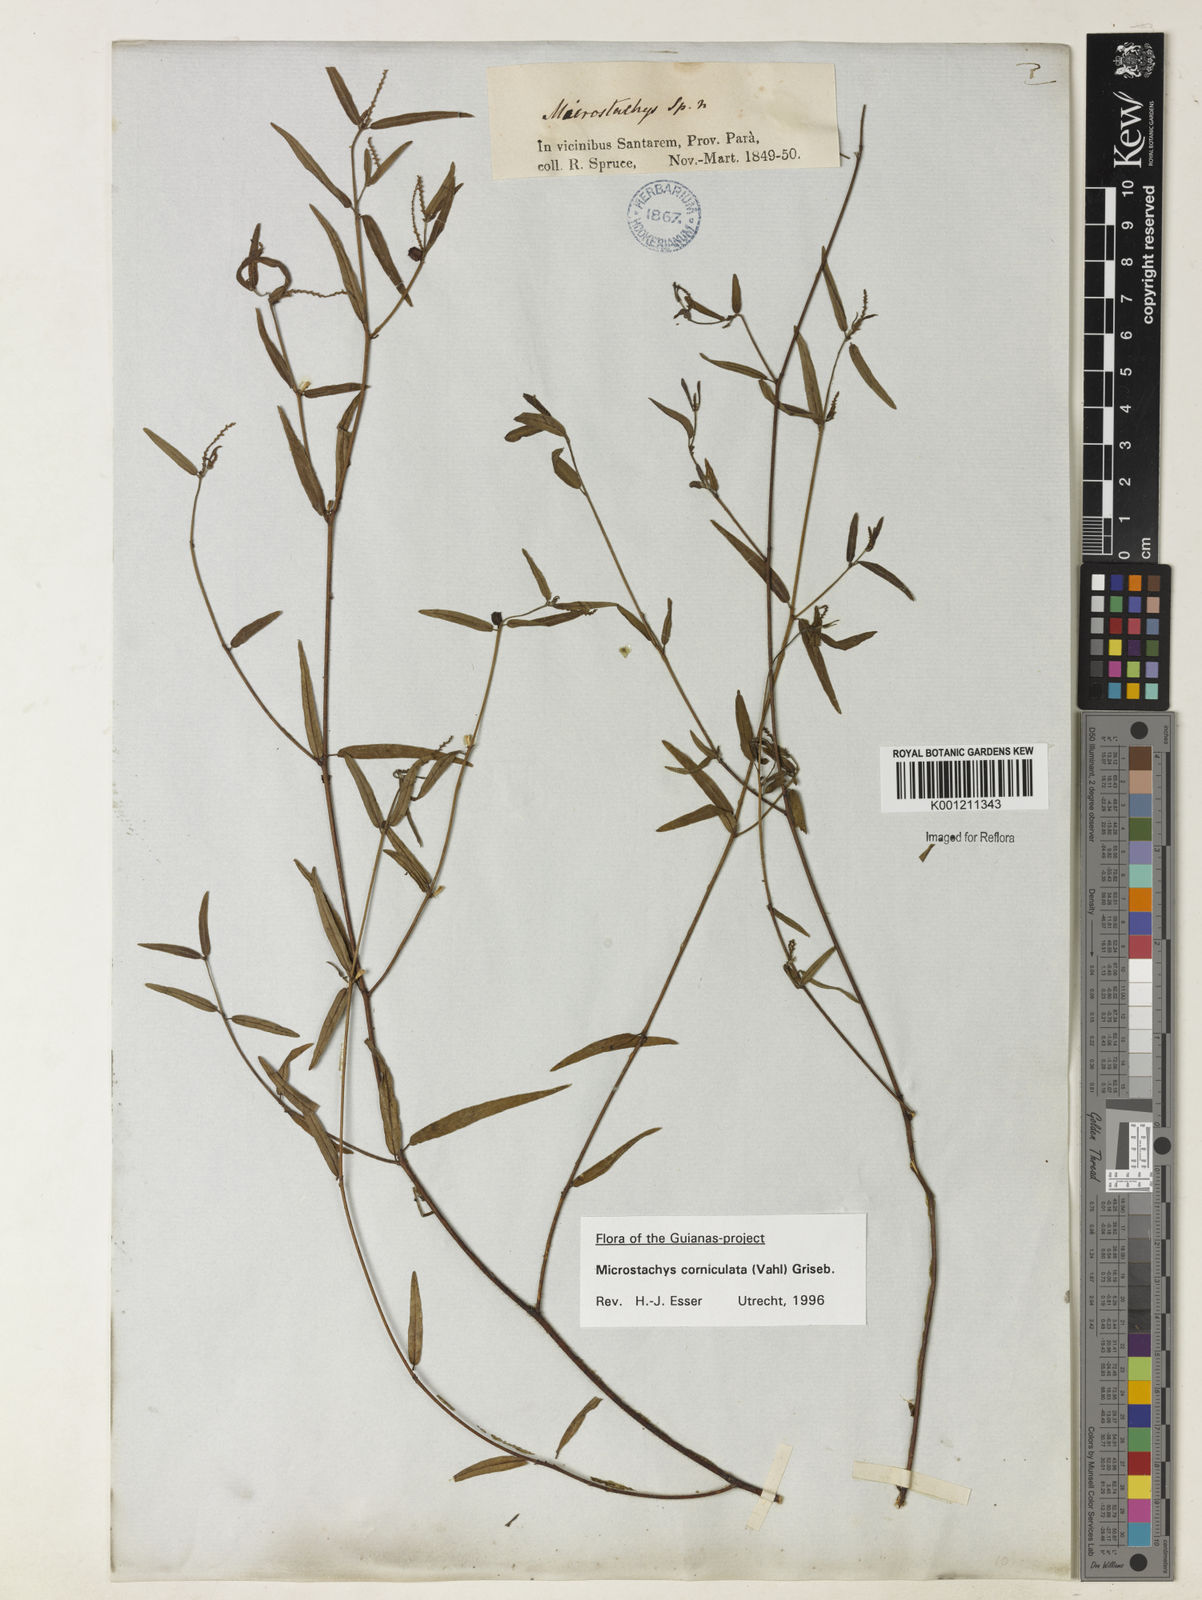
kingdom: Plantae
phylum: Tracheophyta
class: Magnoliopsida
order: Malpighiales
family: Euphorbiaceae
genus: Microstachys
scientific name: Microstachys corniculata
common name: Hato tejas
